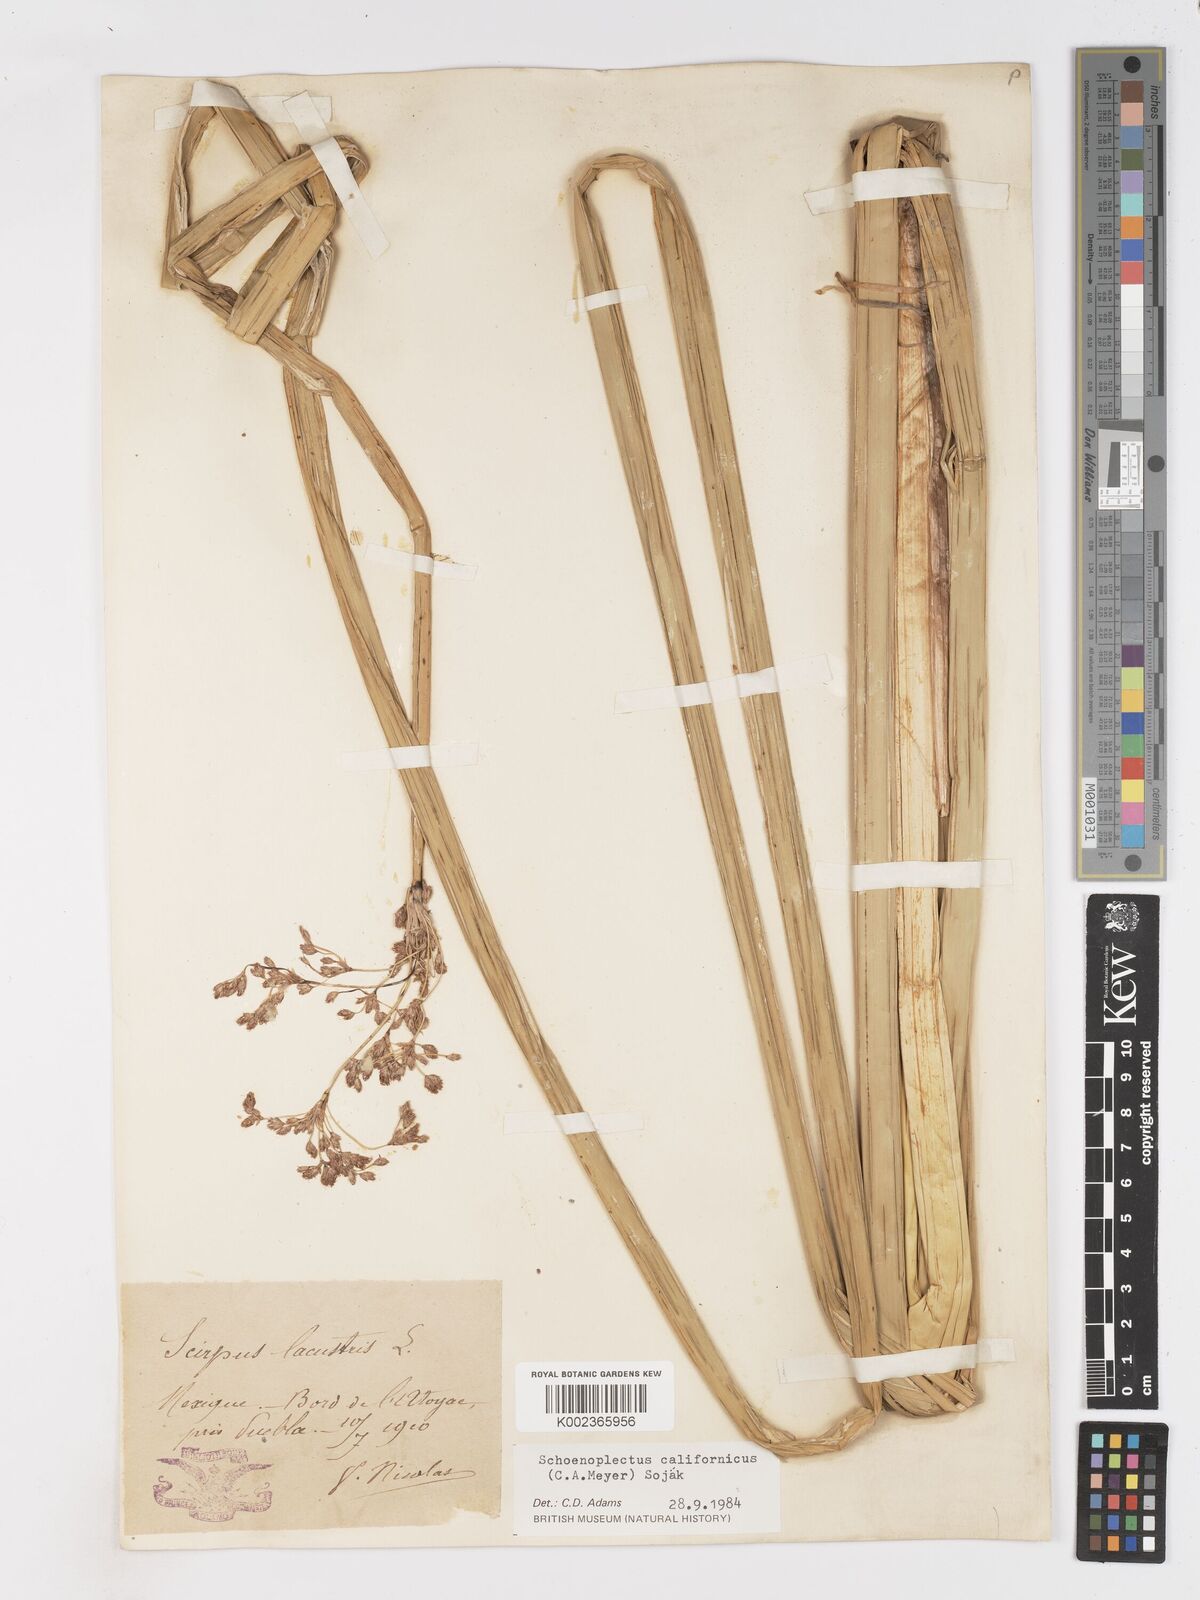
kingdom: Plantae
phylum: Tracheophyta
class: Liliopsida
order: Poales
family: Cyperaceae
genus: Schoenoplectus
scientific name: Schoenoplectus californicus
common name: California bulrush
